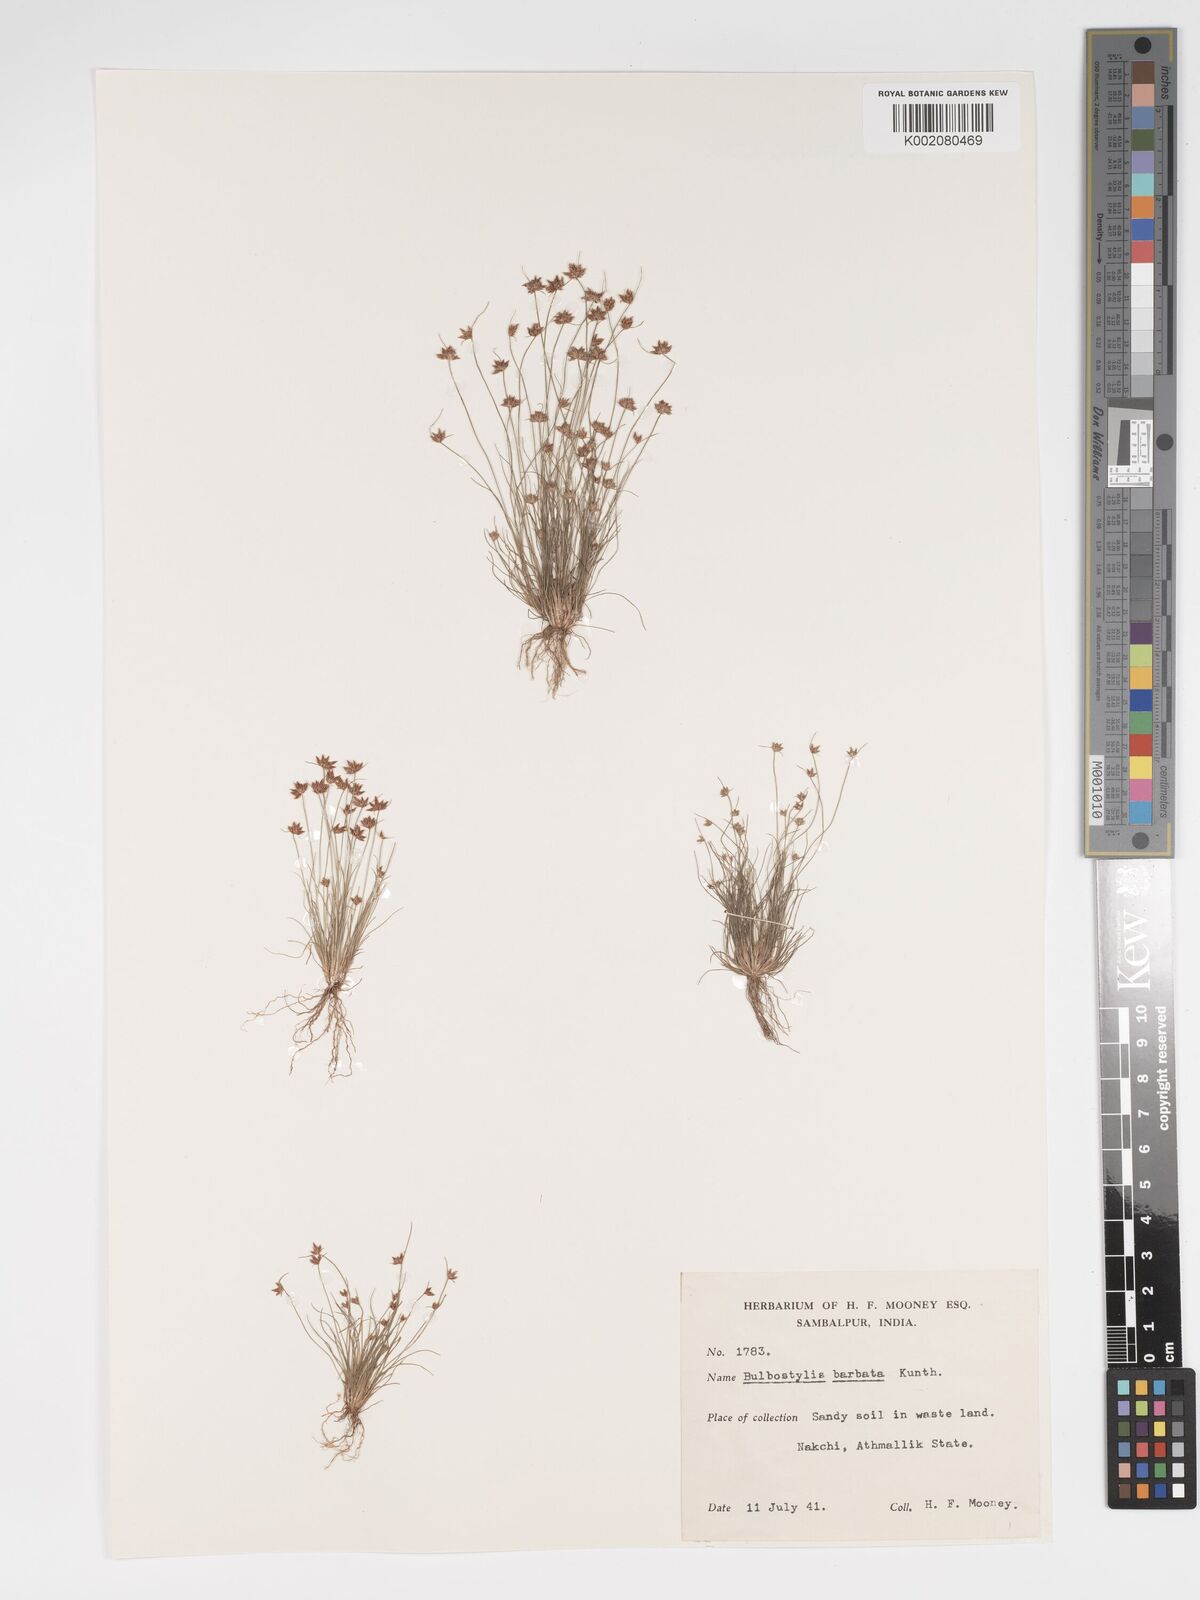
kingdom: Plantae
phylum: Tracheophyta
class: Liliopsida
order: Poales
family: Cyperaceae
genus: Bulbostylis
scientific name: Bulbostylis barbata
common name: Watergrass
